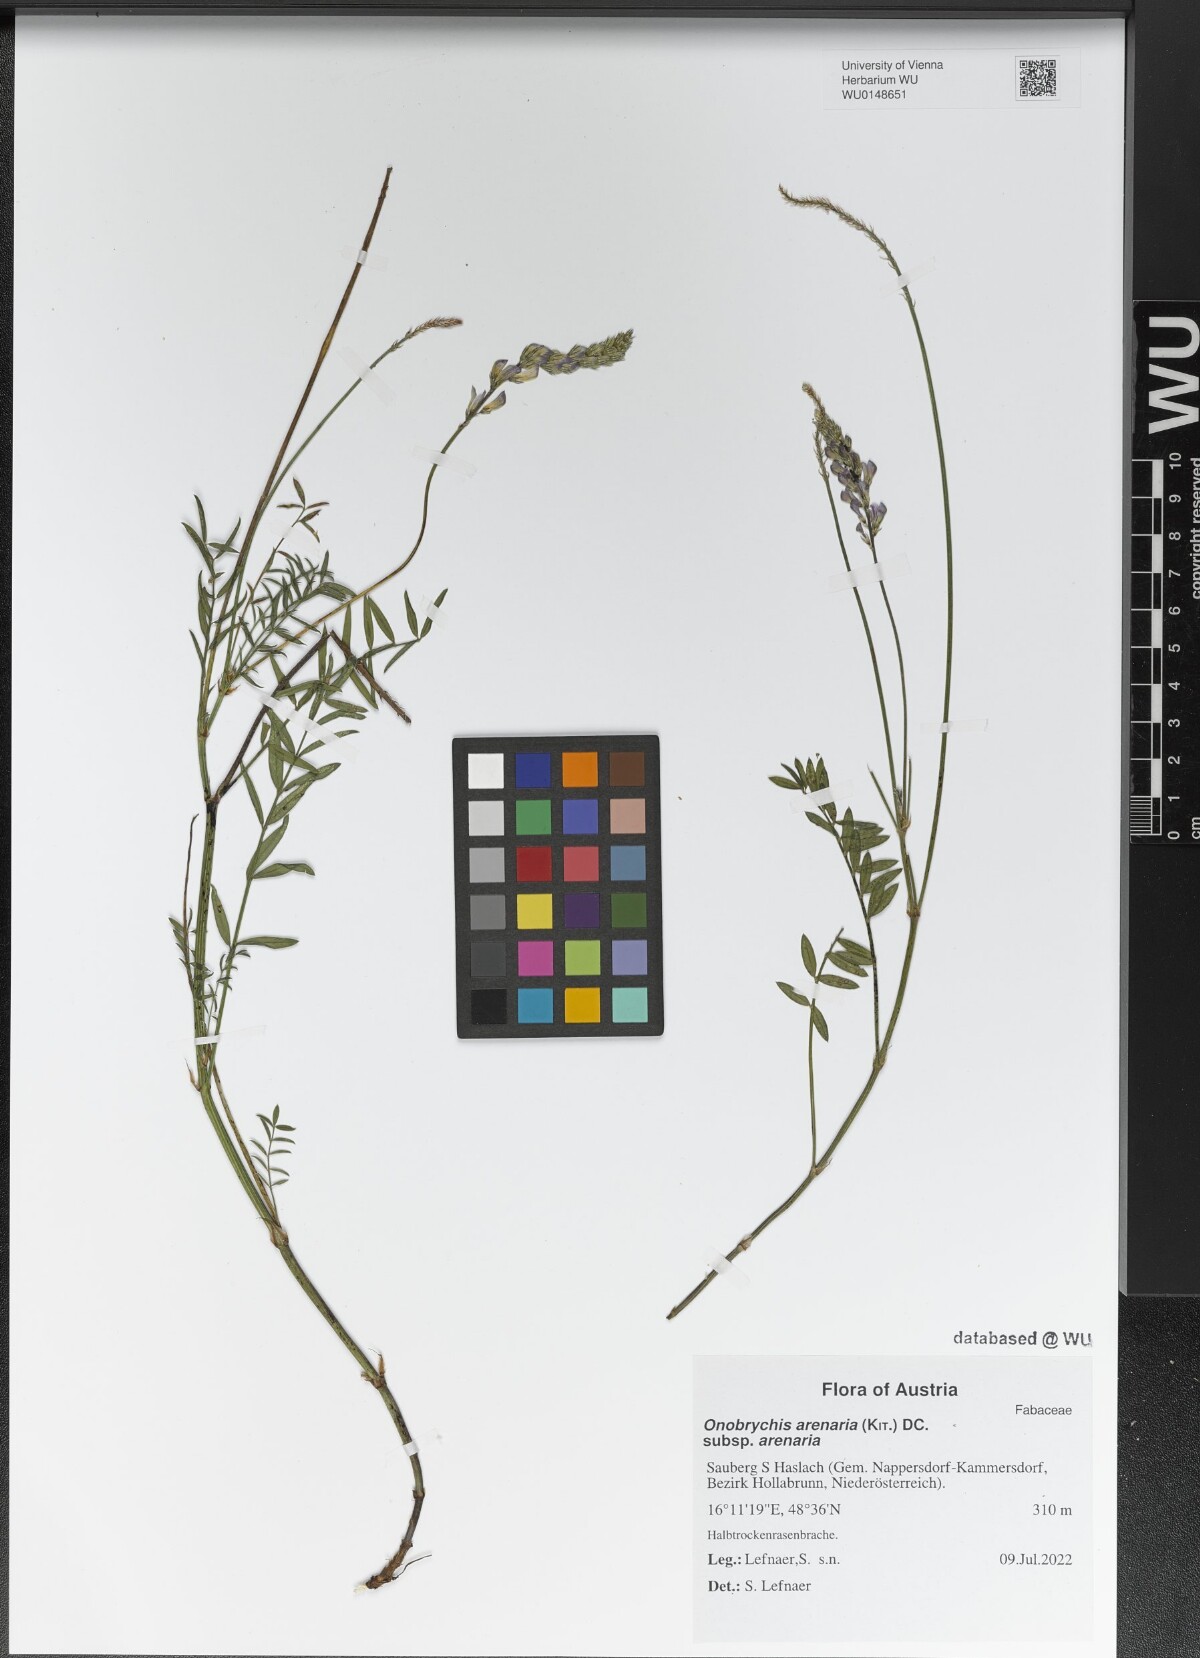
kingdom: Plantae
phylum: Tracheophyta
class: Magnoliopsida
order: Fabales
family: Fabaceae
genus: Onobrychis
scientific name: Onobrychis arenaria
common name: Sand esparcet
